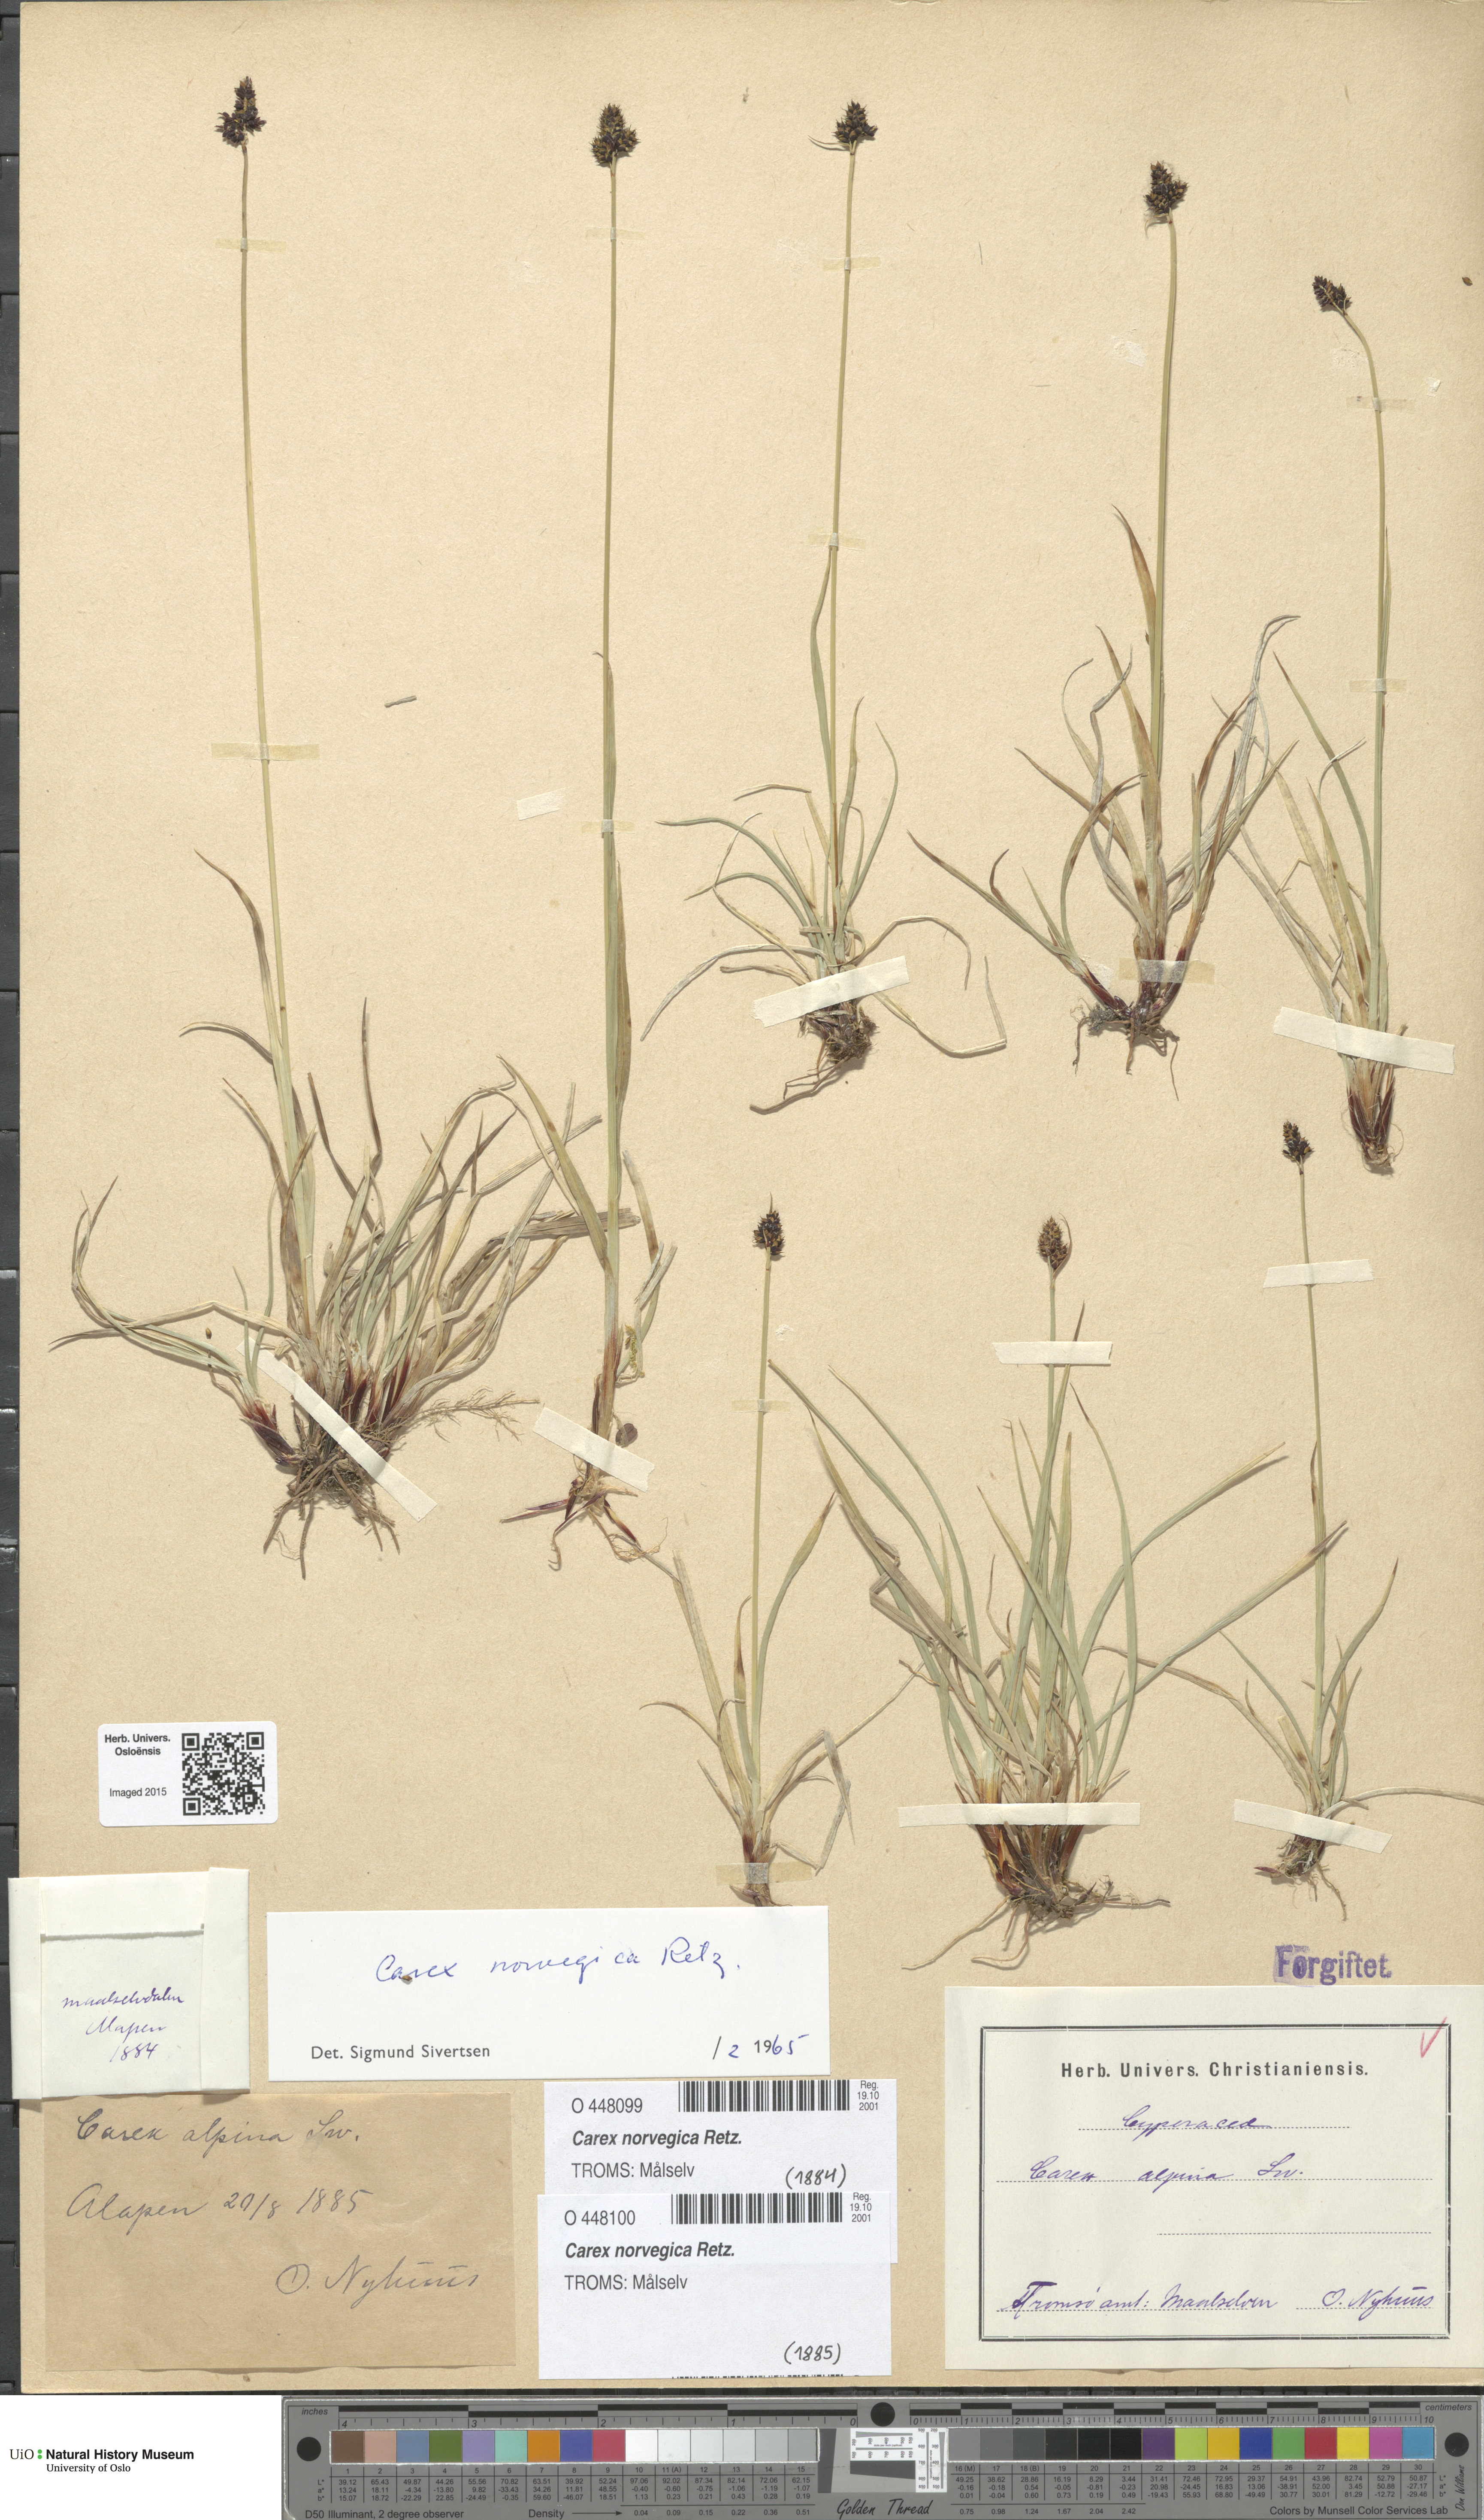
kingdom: Plantae
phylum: Tracheophyta
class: Liliopsida
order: Poales
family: Cyperaceae
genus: Carex
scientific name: Carex norvegica
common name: Close-headed alpine-sedge
